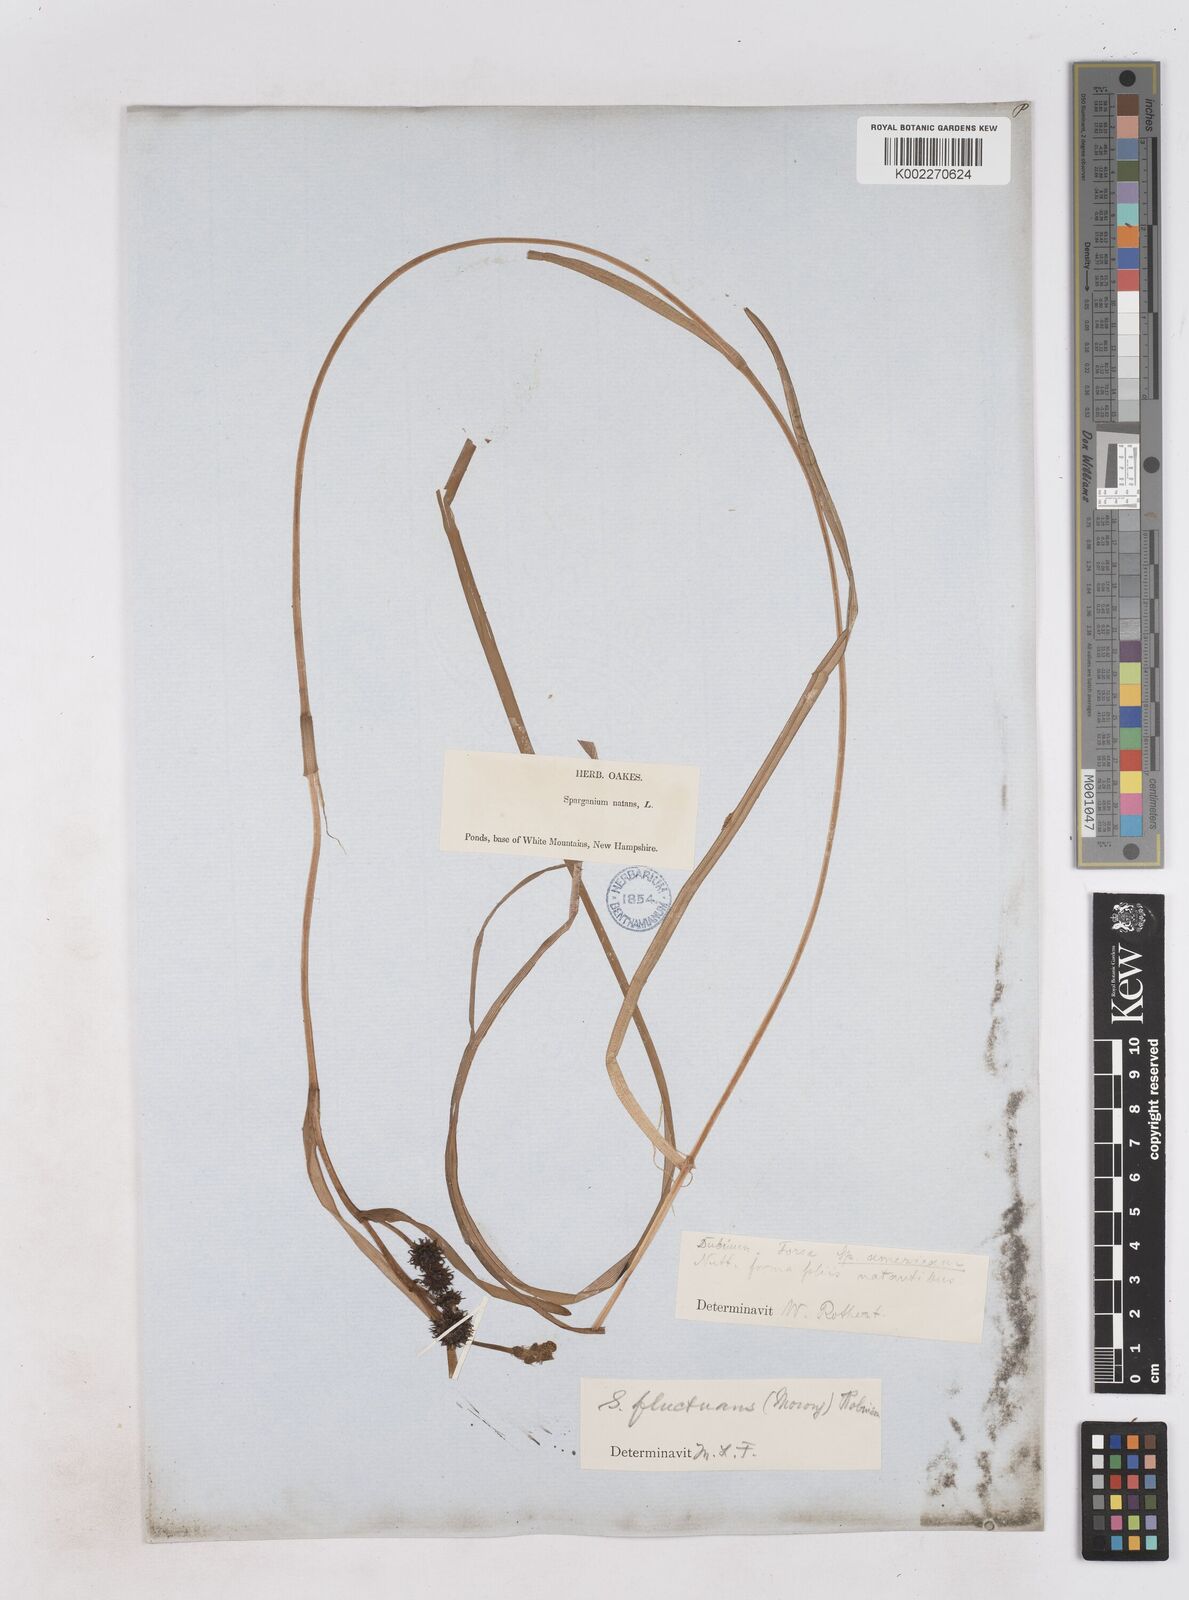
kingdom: Plantae
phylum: Tracheophyta
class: Liliopsida
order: Poales
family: Typhaceae
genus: Sparganium
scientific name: Sparganium fluctuans
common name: Floating burreed
